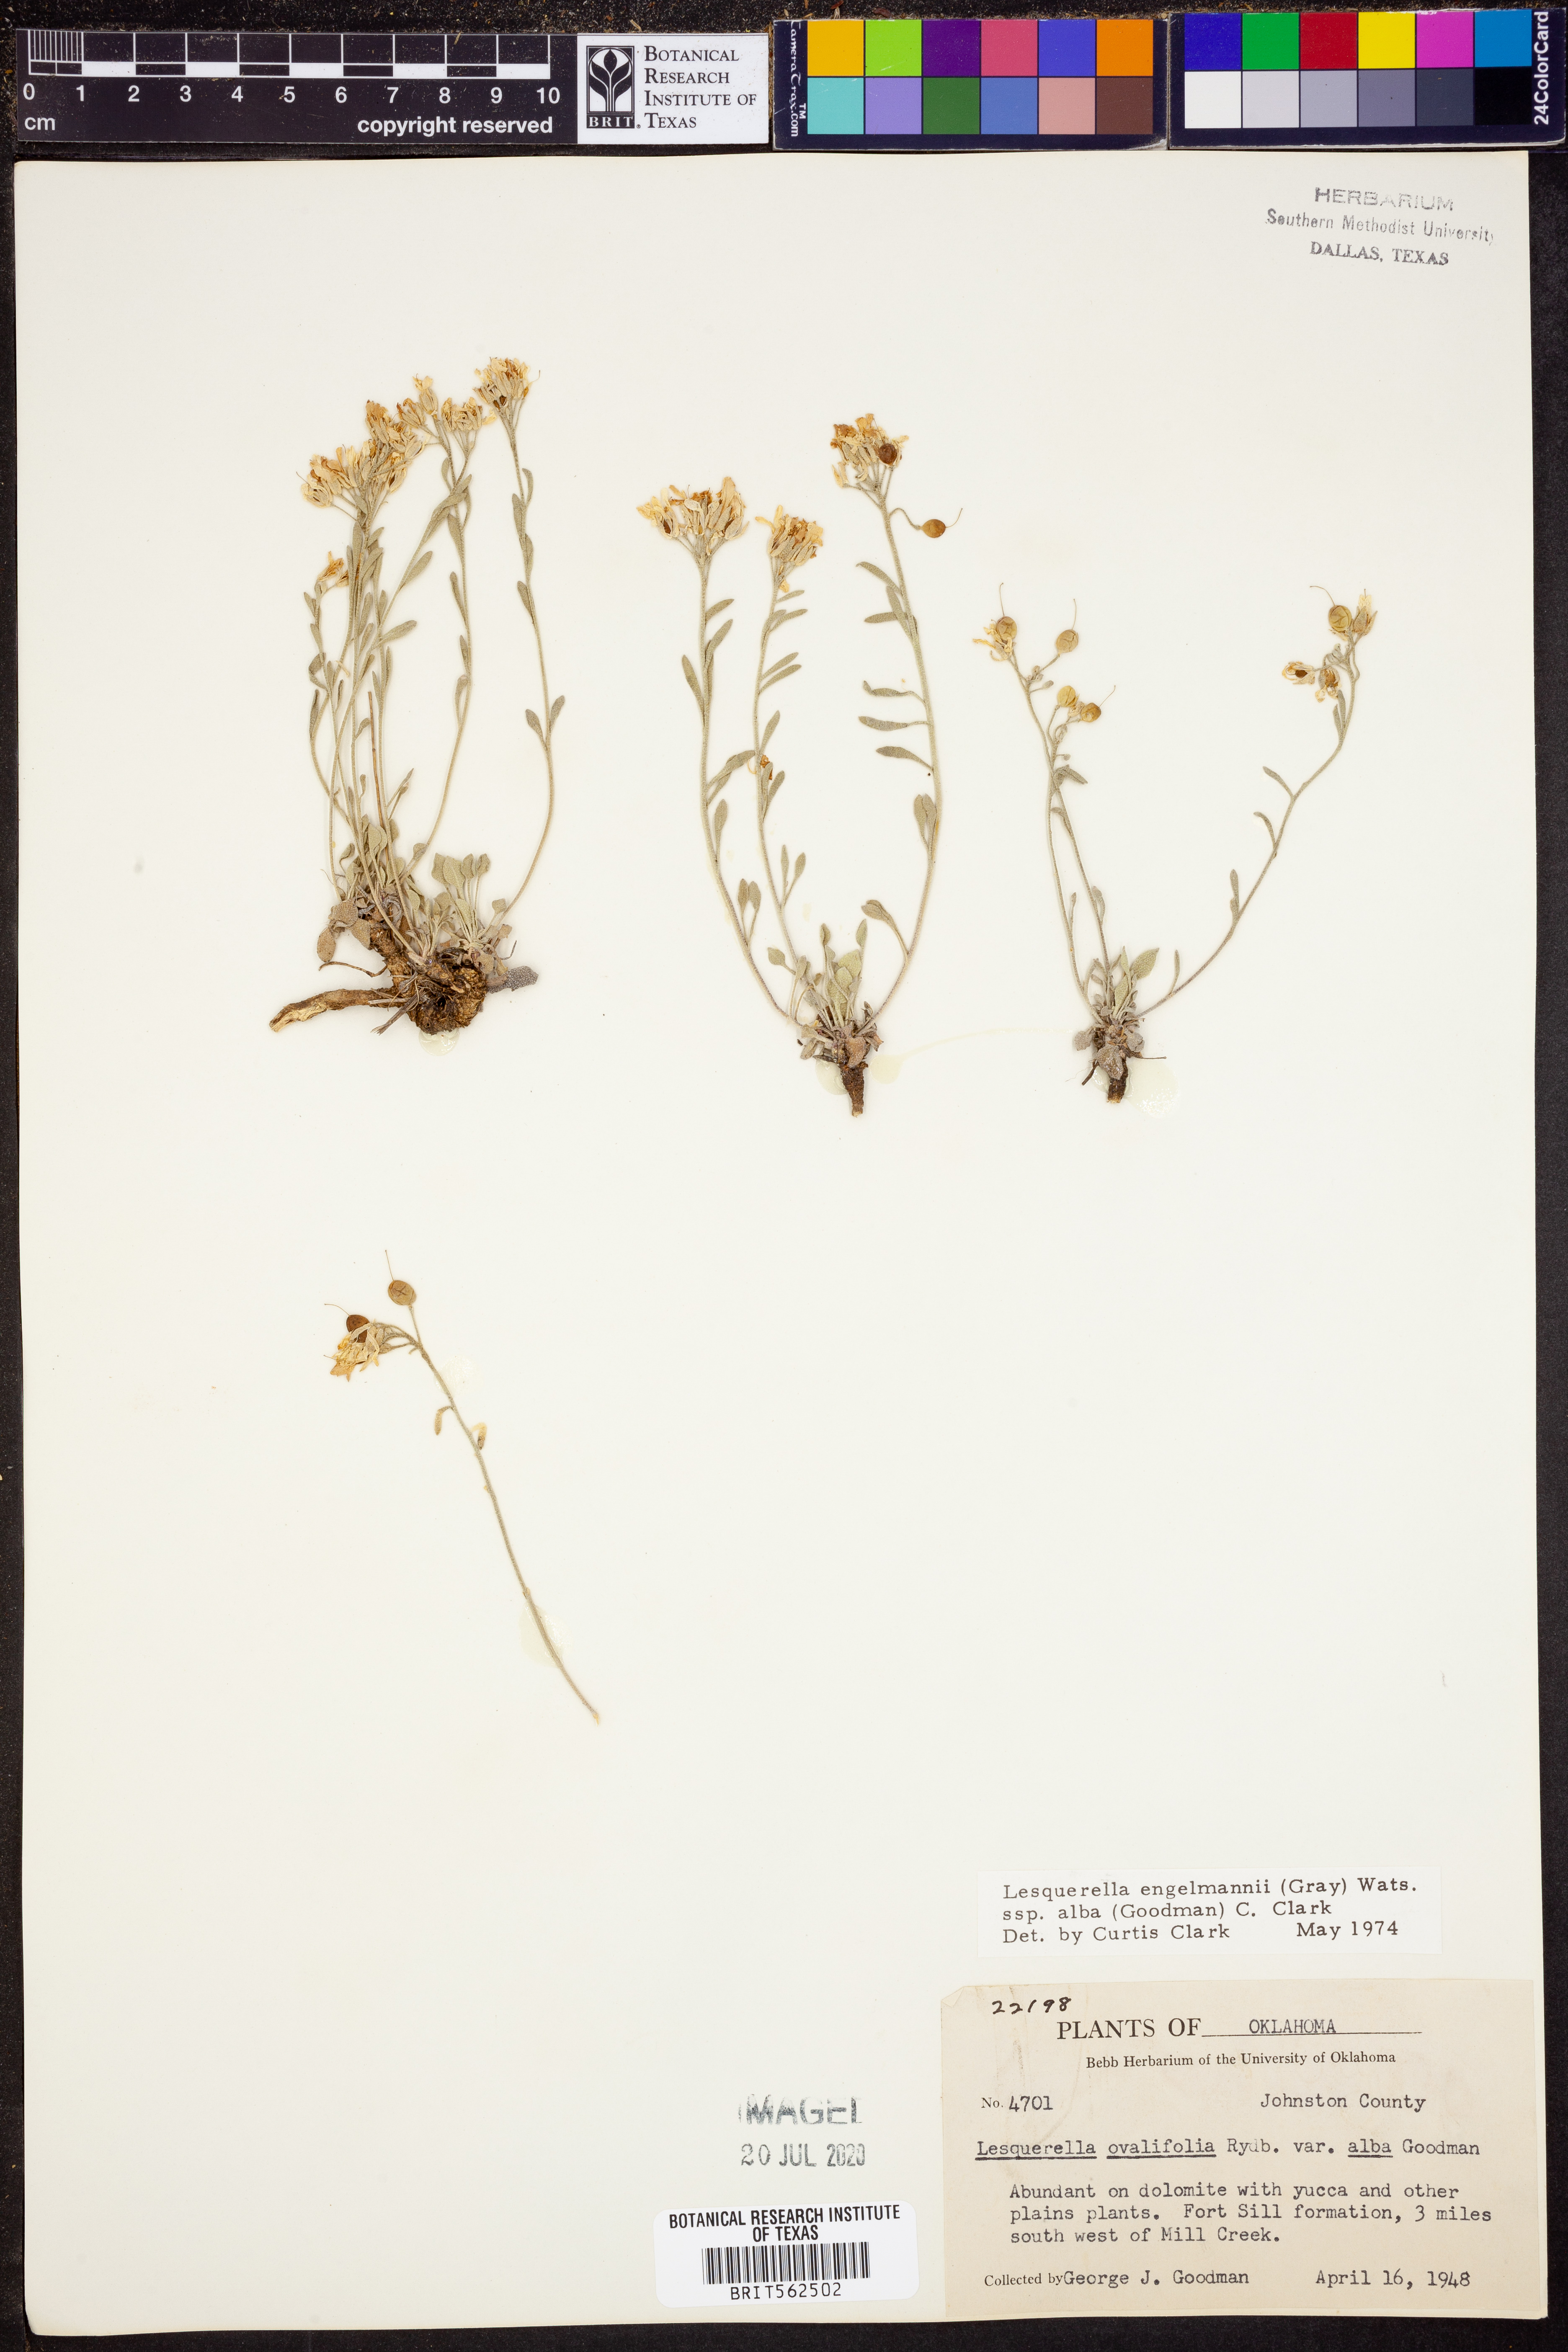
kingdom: Plantae
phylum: Tracheophyta
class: Magnoliopsida
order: Brassicales
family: Brassicaceae
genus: Physaria
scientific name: Physaria ovalifolia
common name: Round-leaf bladderpod
